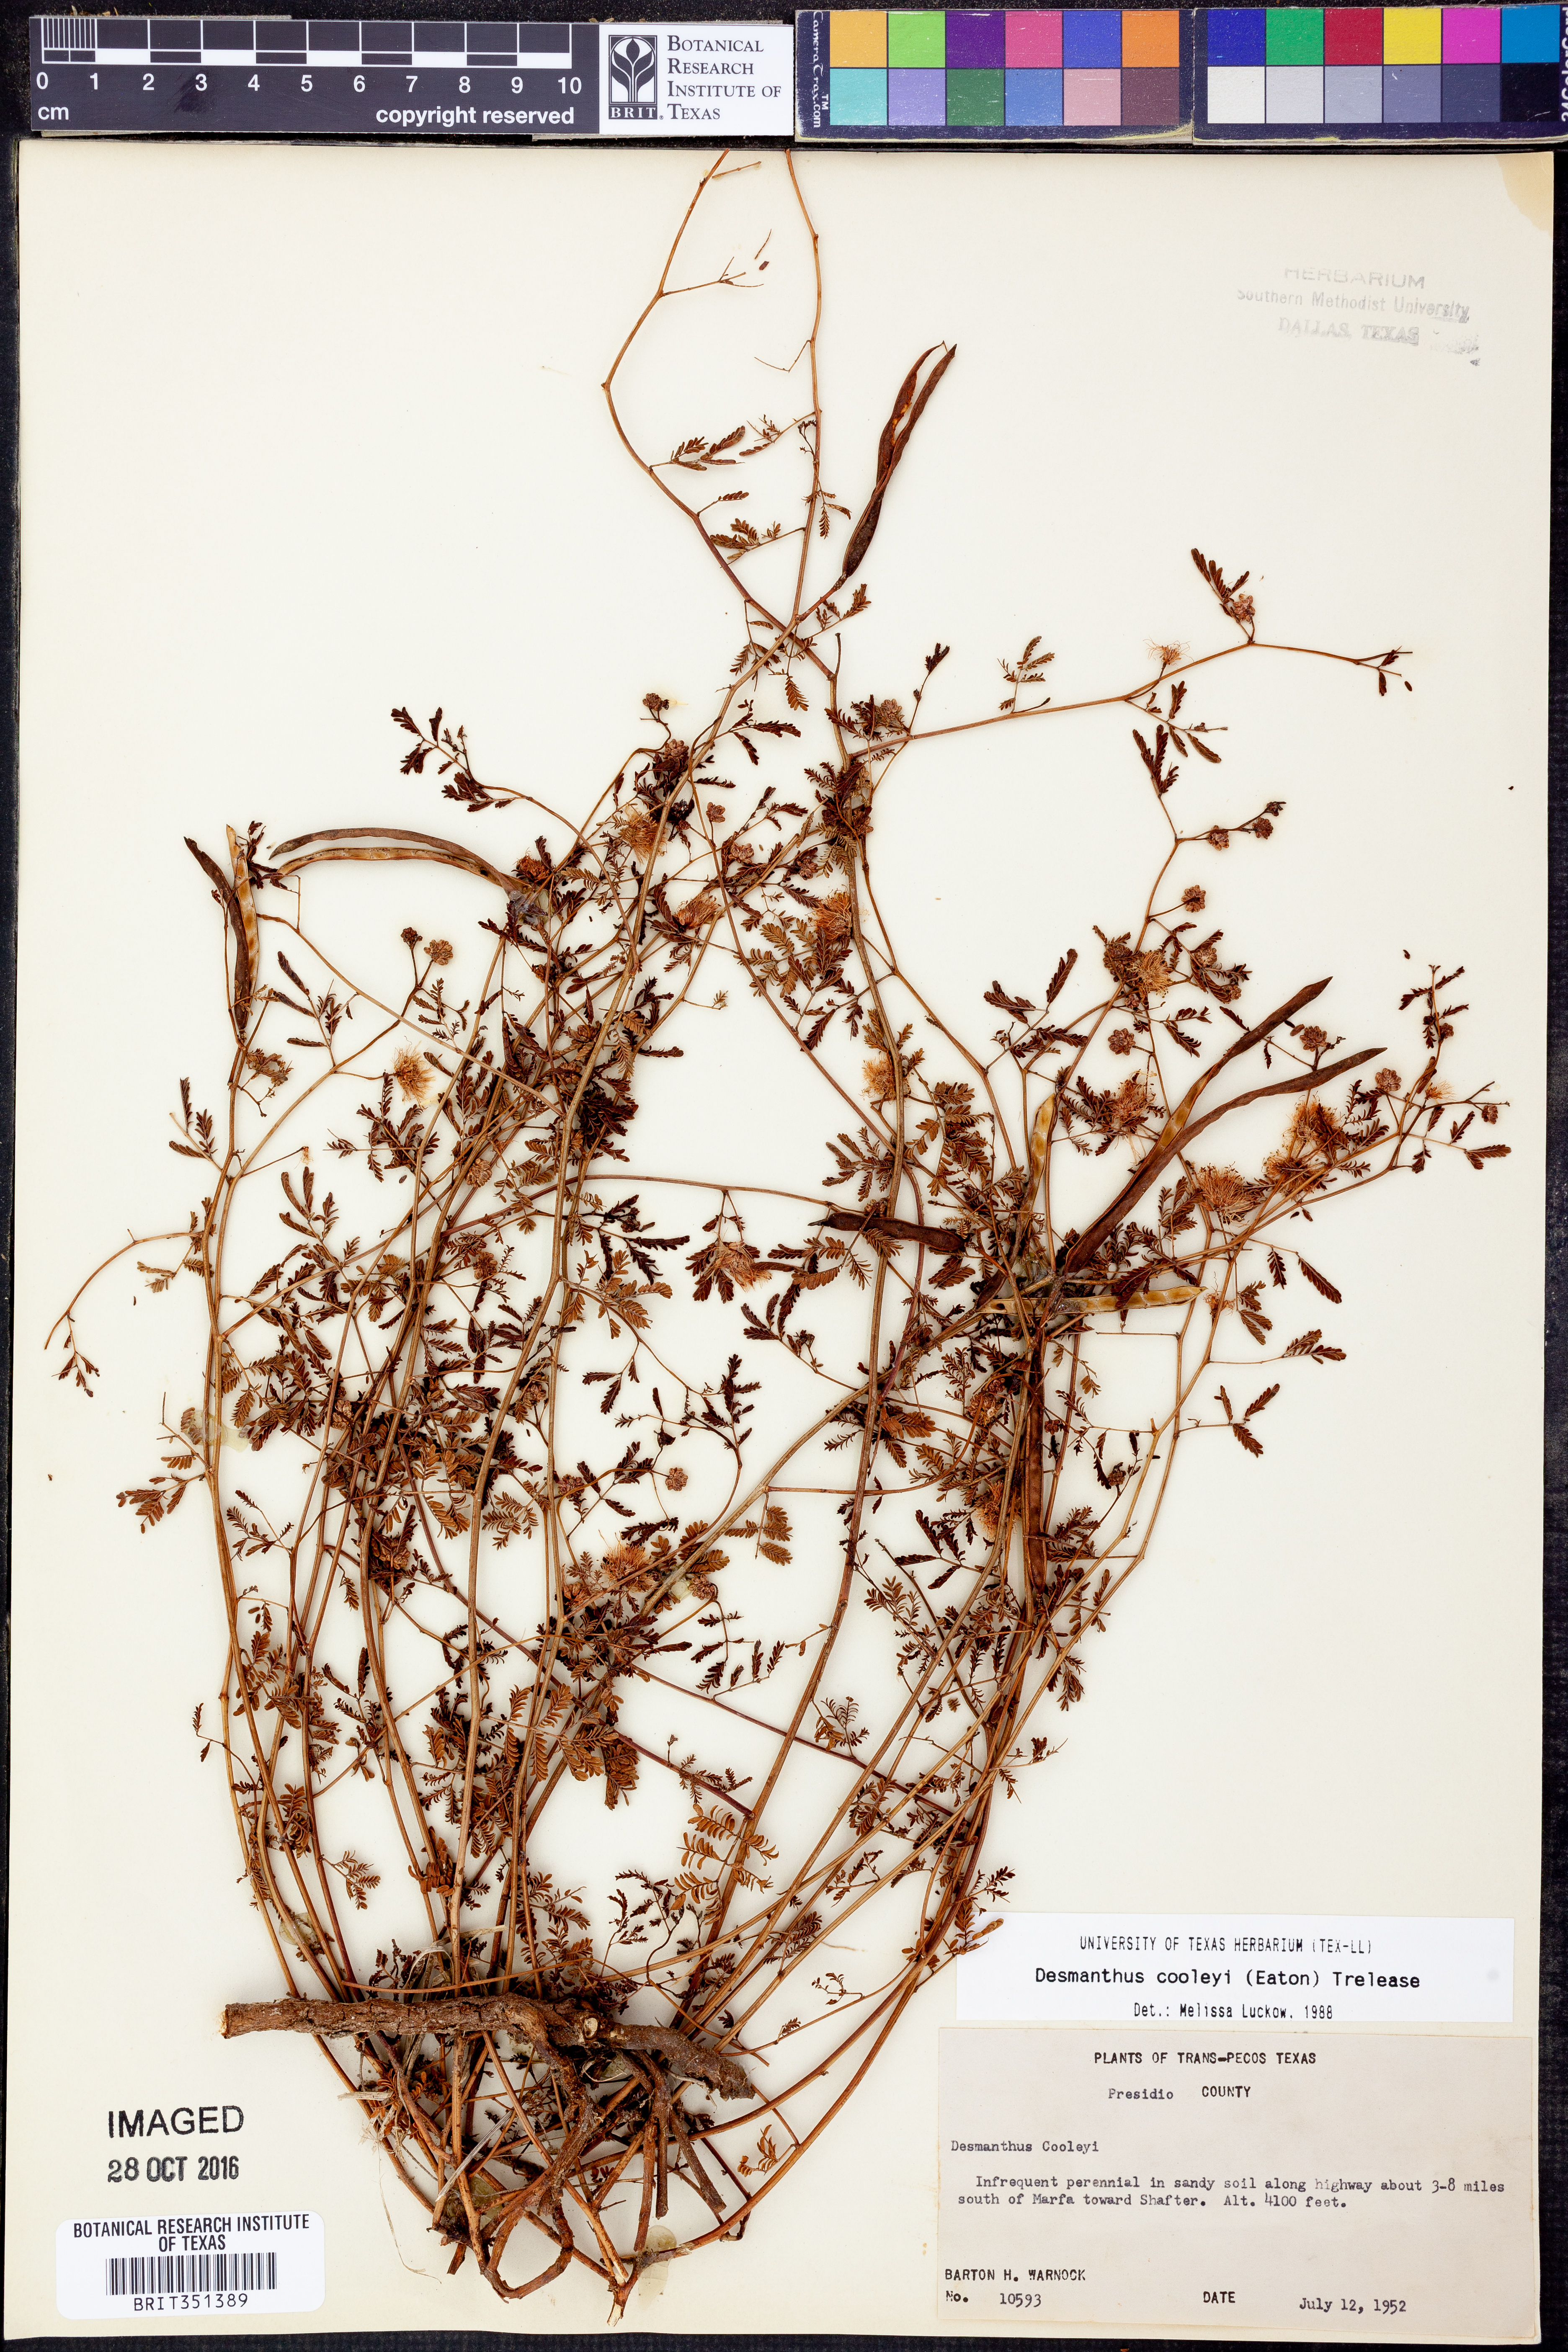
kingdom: Plantae
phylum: Tracheophyta
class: Magnoliopsida
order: Fabales
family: Fabaceae
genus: Desmanthus
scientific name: Desmanthus cooleyi
